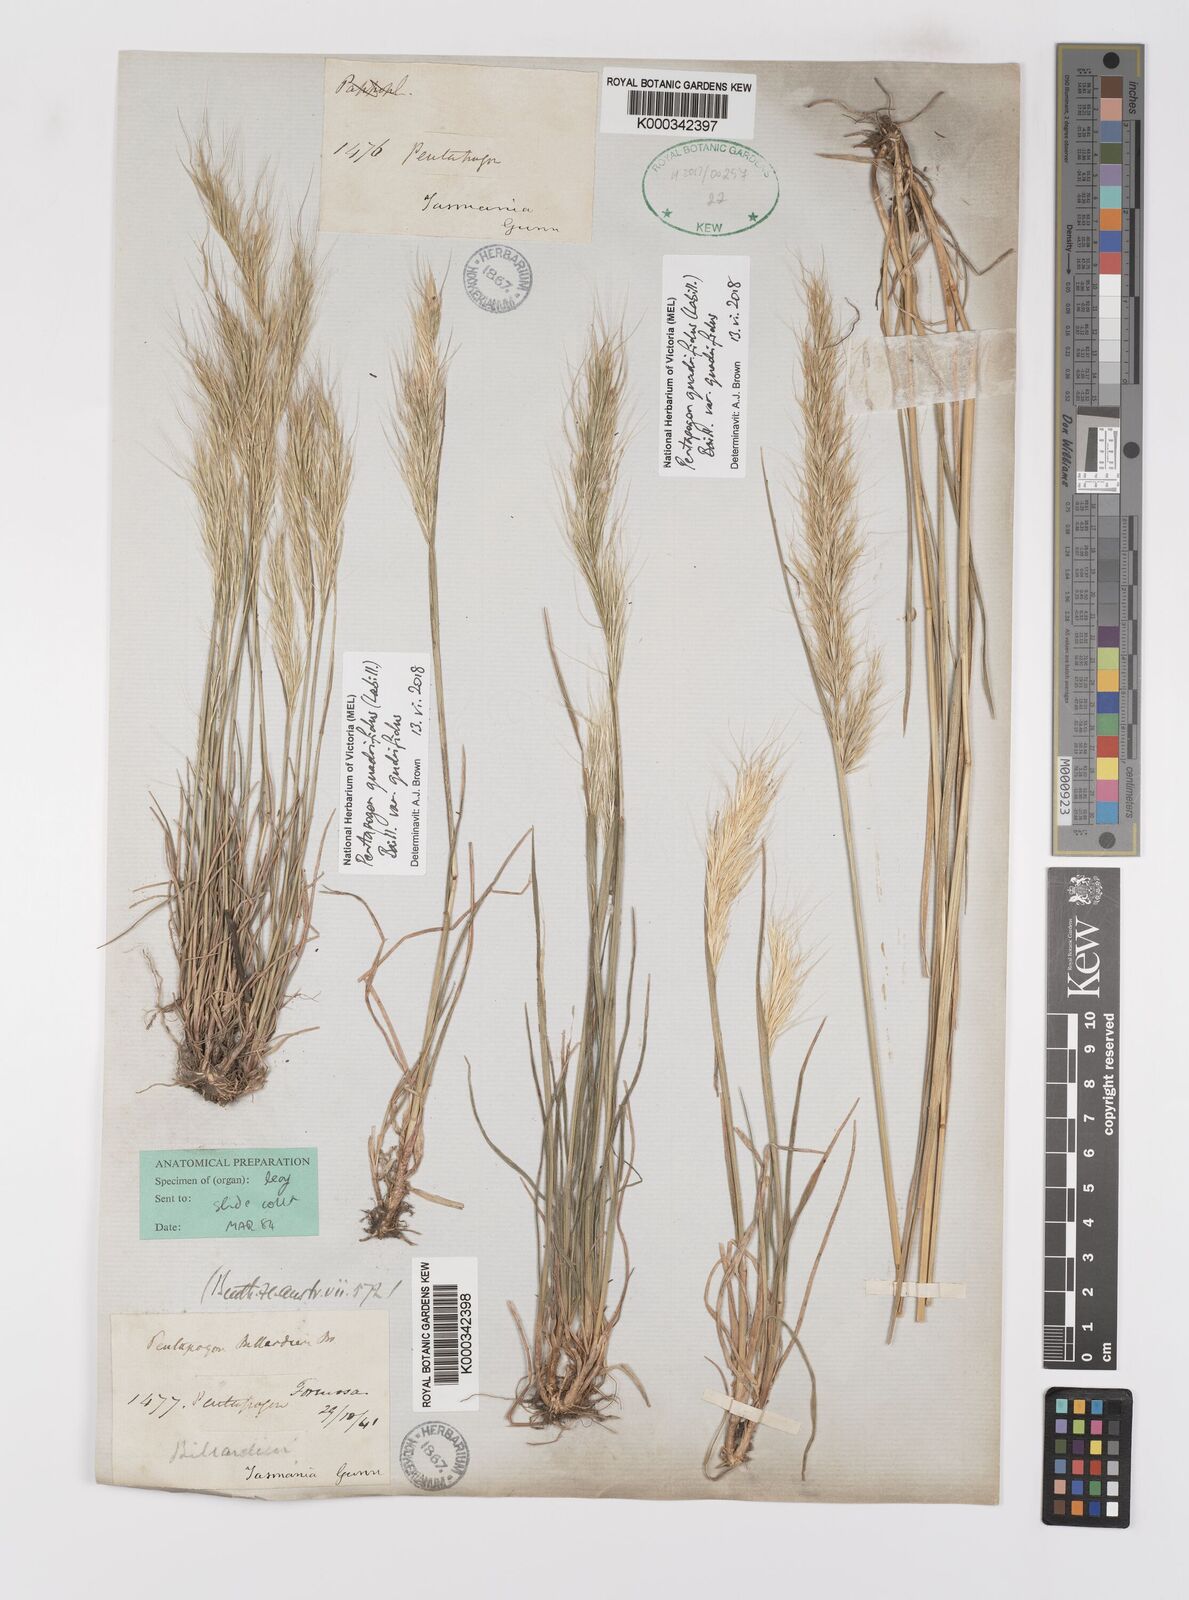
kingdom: Plantae
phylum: Tracheophyta
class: Liliopsida
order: Poales
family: Poaceae
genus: Pentapogon
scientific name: Pentapogon
